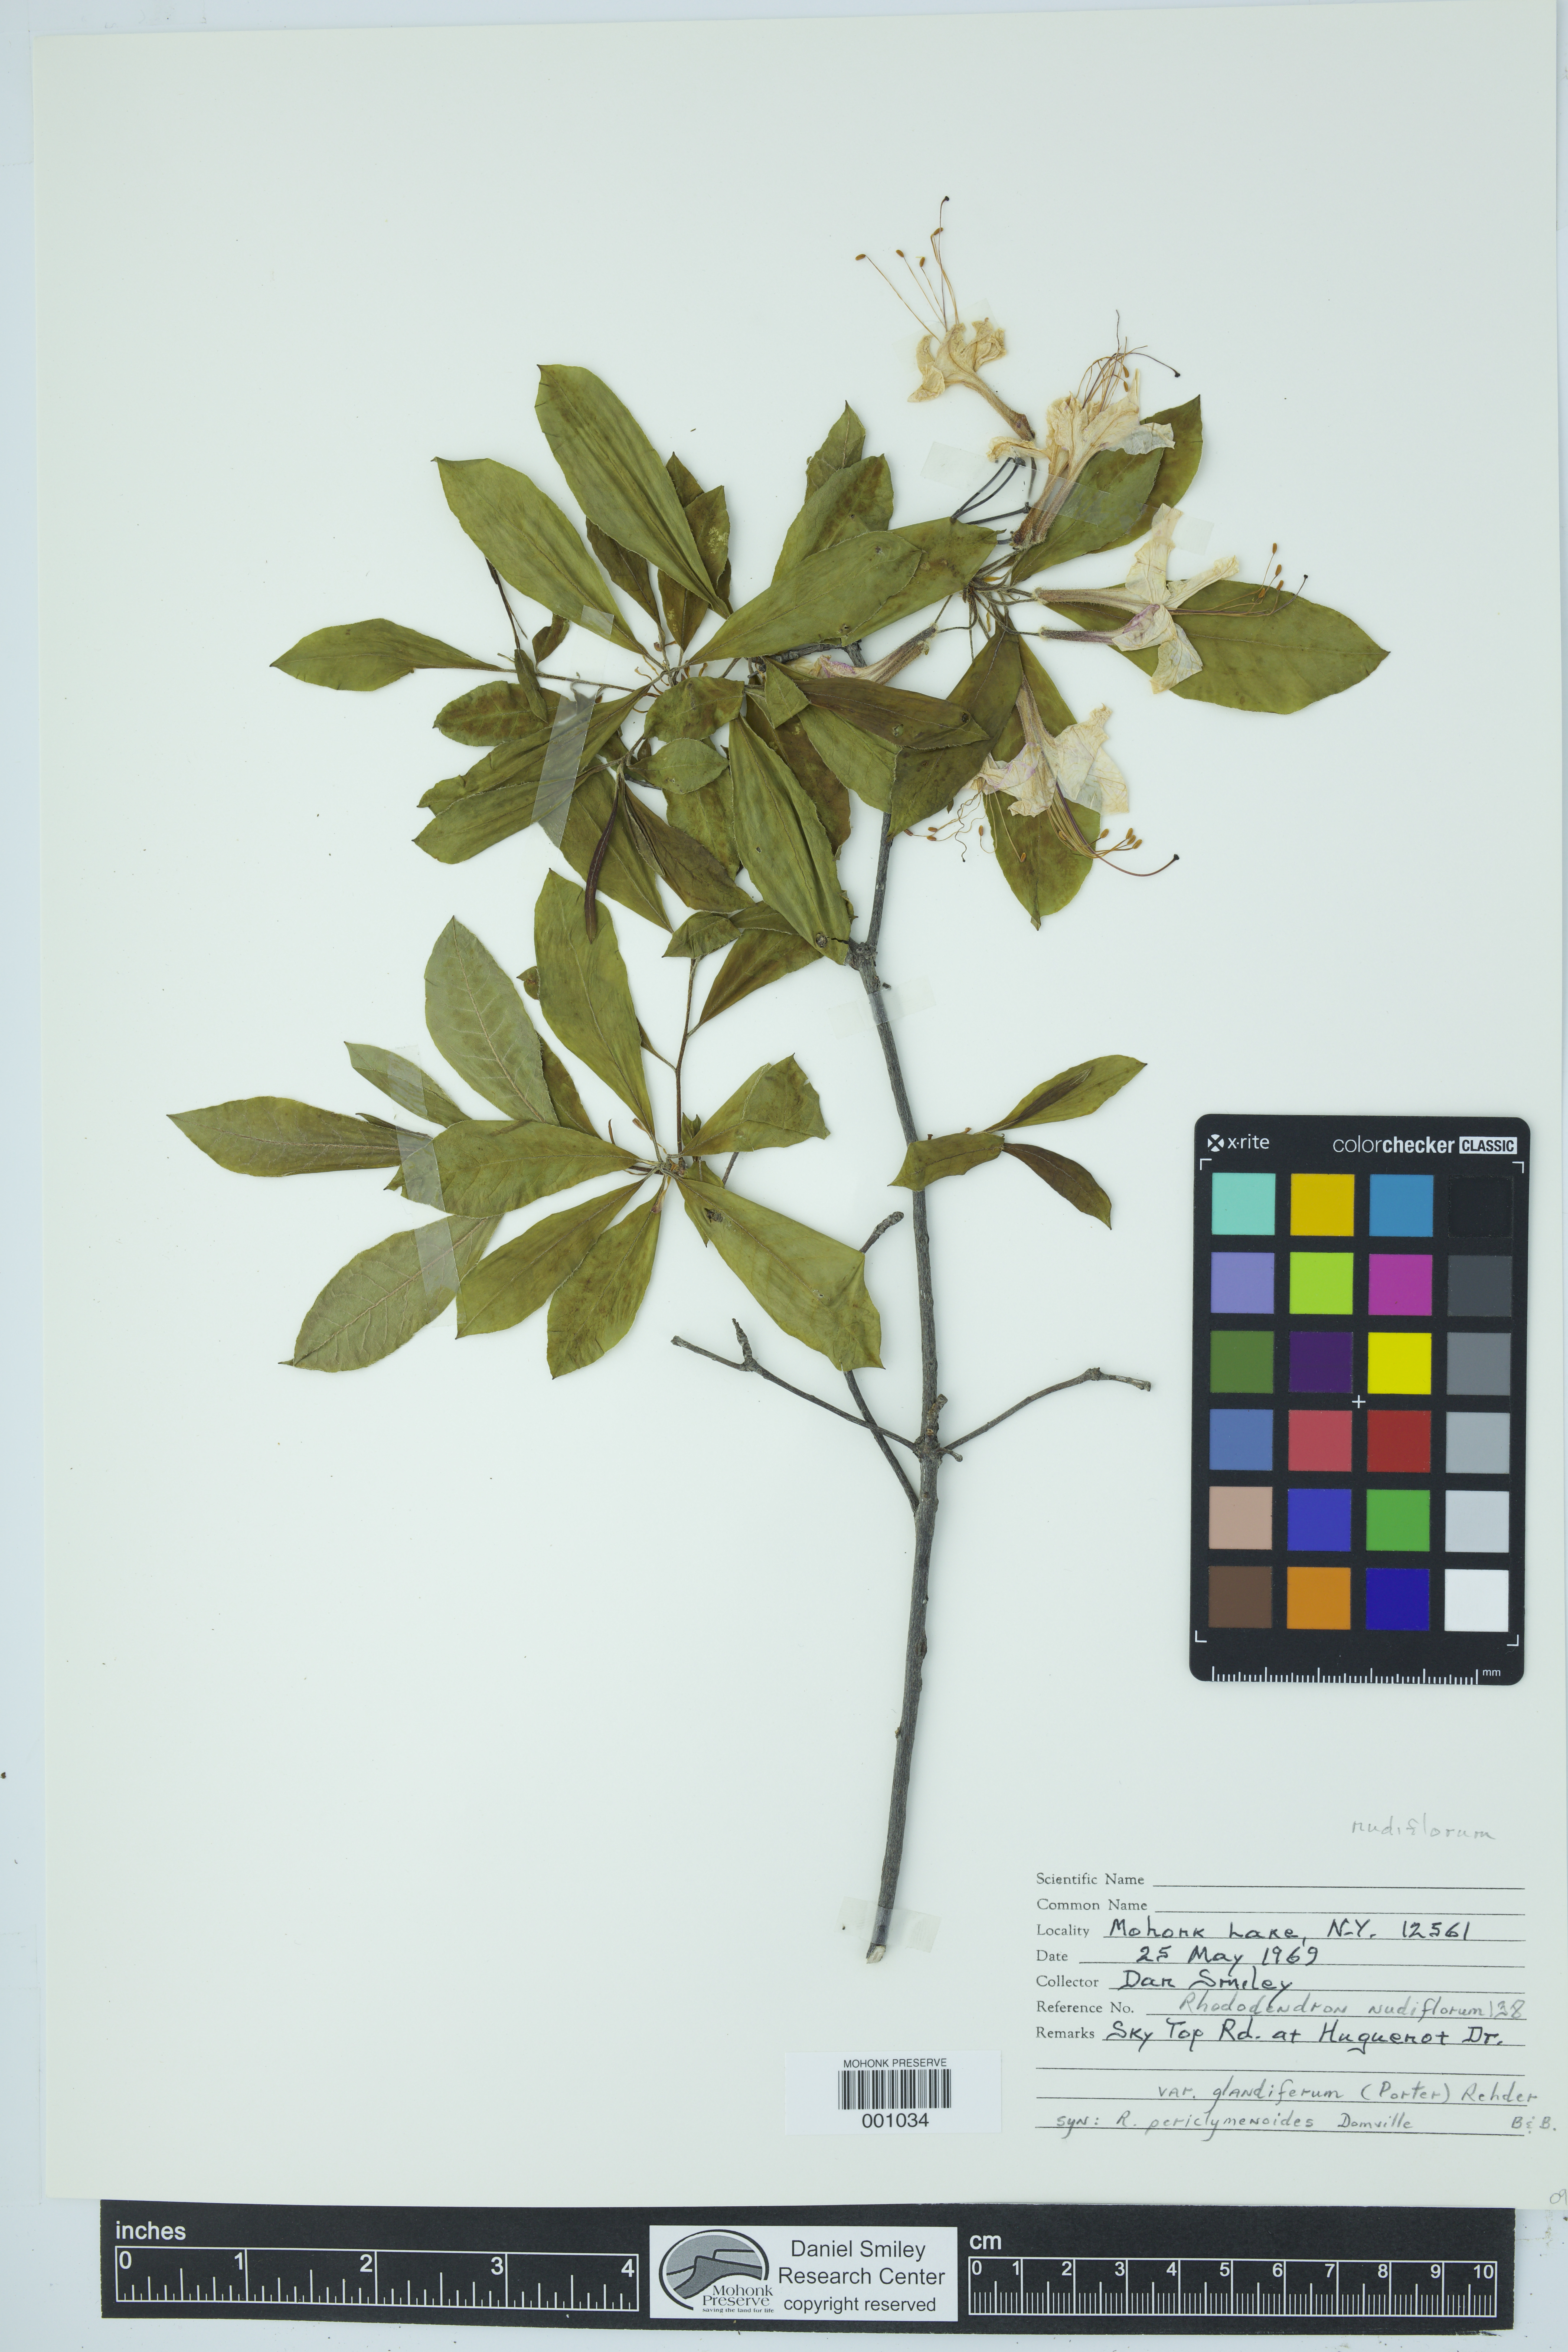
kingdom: Plantae
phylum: Tracheophyta
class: Magnoliopsida
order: Ericales
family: Ericaceae
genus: Rhododendron
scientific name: Rhododendron periclymenoides
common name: Election-pink
